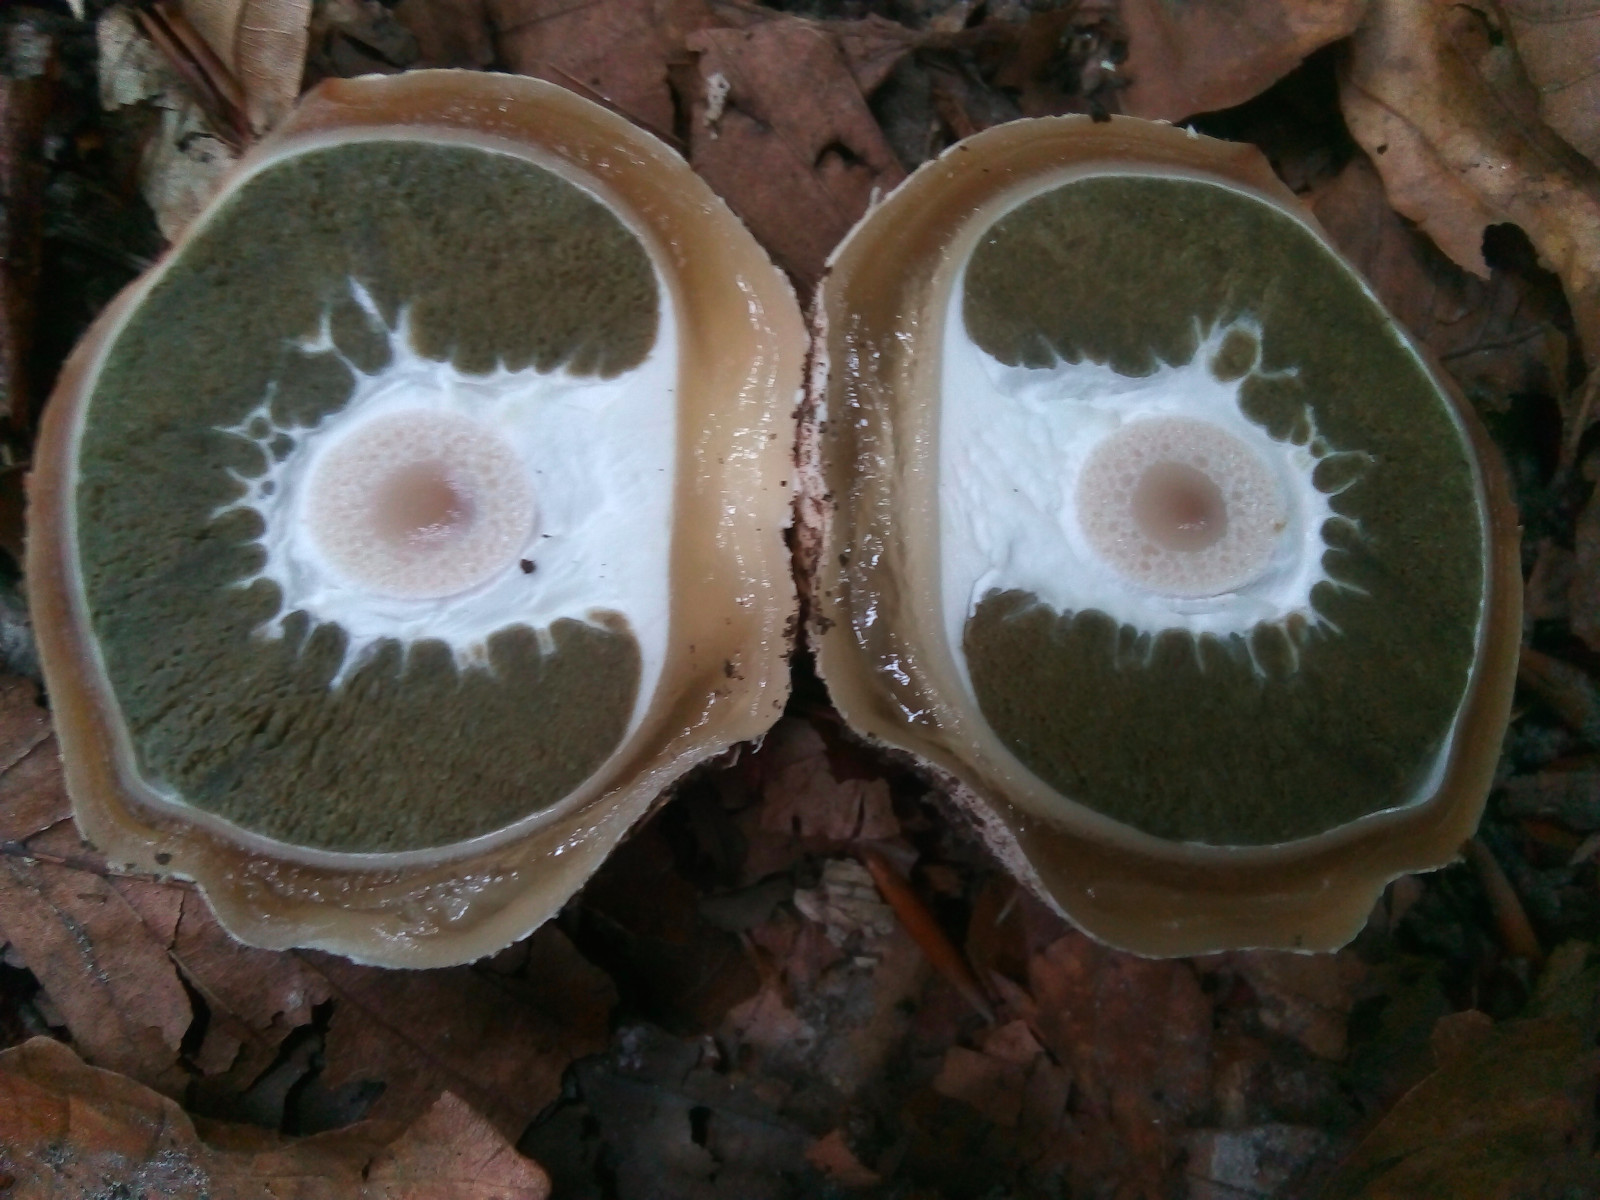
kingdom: Fungi
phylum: Basidiomycota
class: Agaricomycetes
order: Phallales
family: Phallaceae
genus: Phallus
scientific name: Phallus impudicus
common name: almindelig stinksvamp
